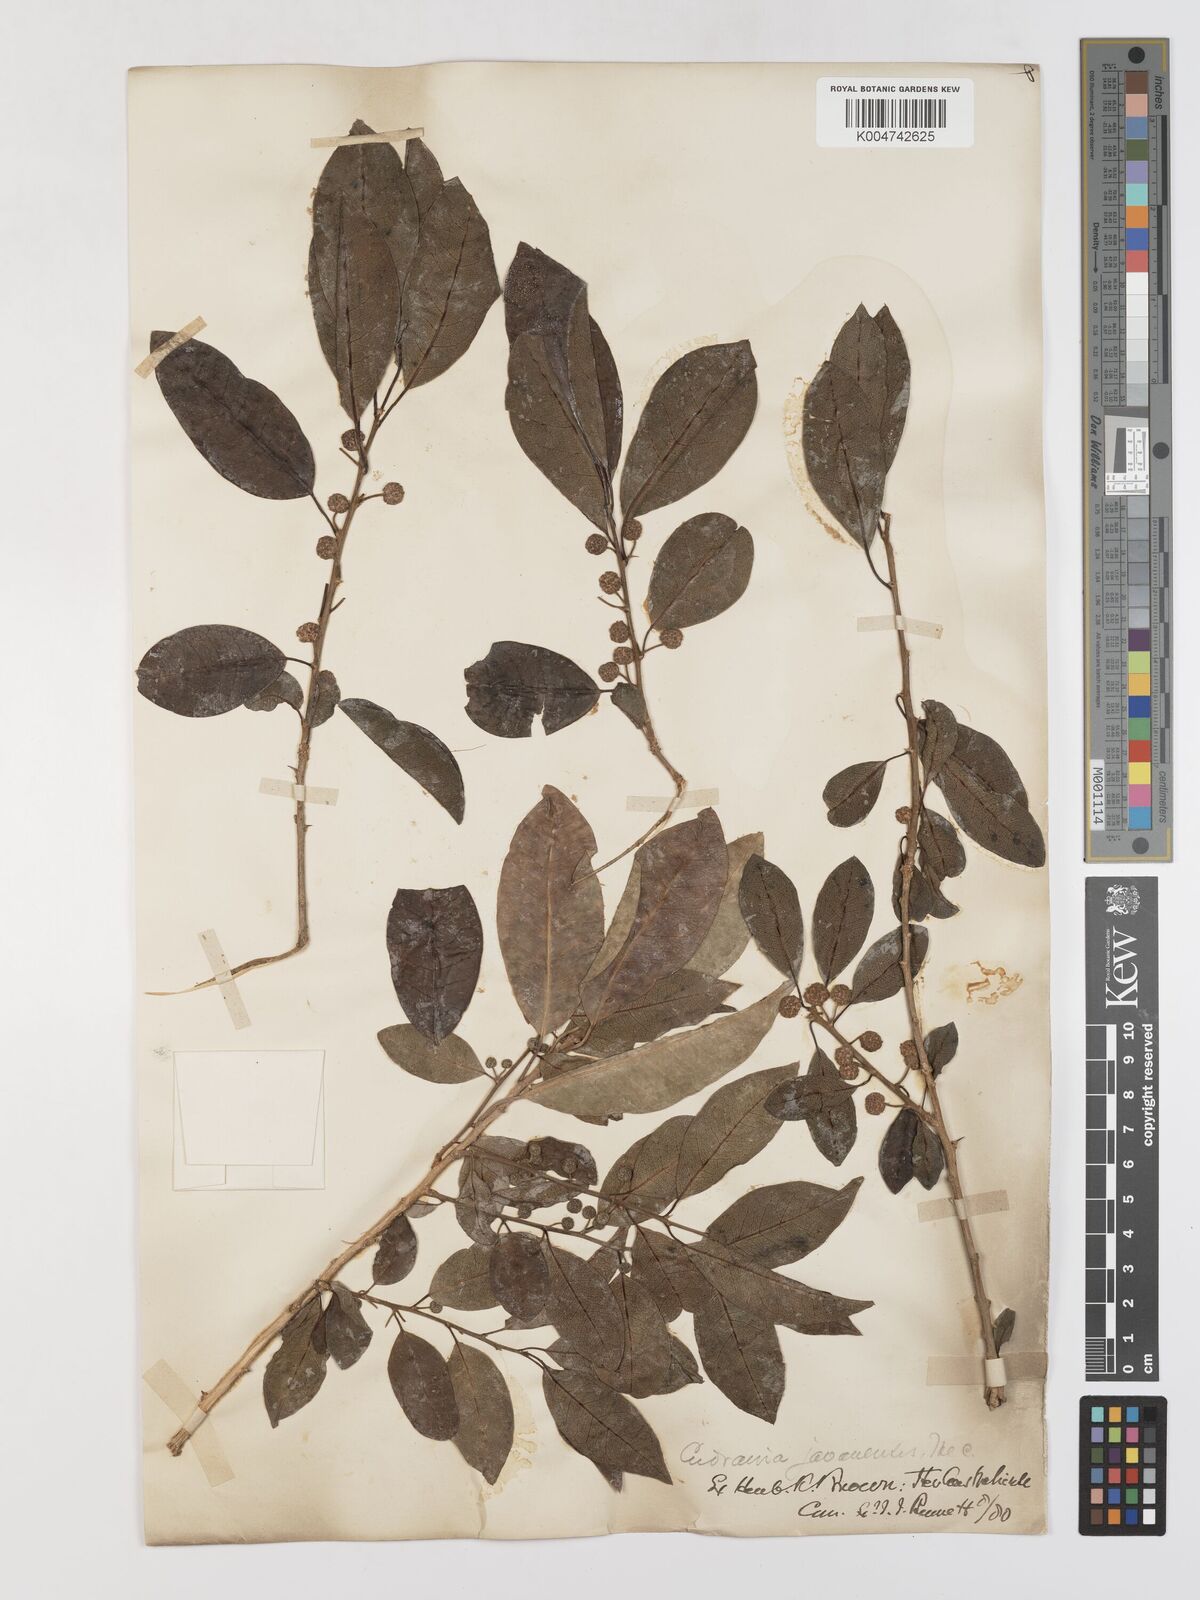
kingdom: Plantae
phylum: Tracheophyta
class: Magnoliopsida
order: Rosales
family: Moraceae
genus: Maclura
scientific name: Maclura cochinchinensis
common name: Cockspurthorn
